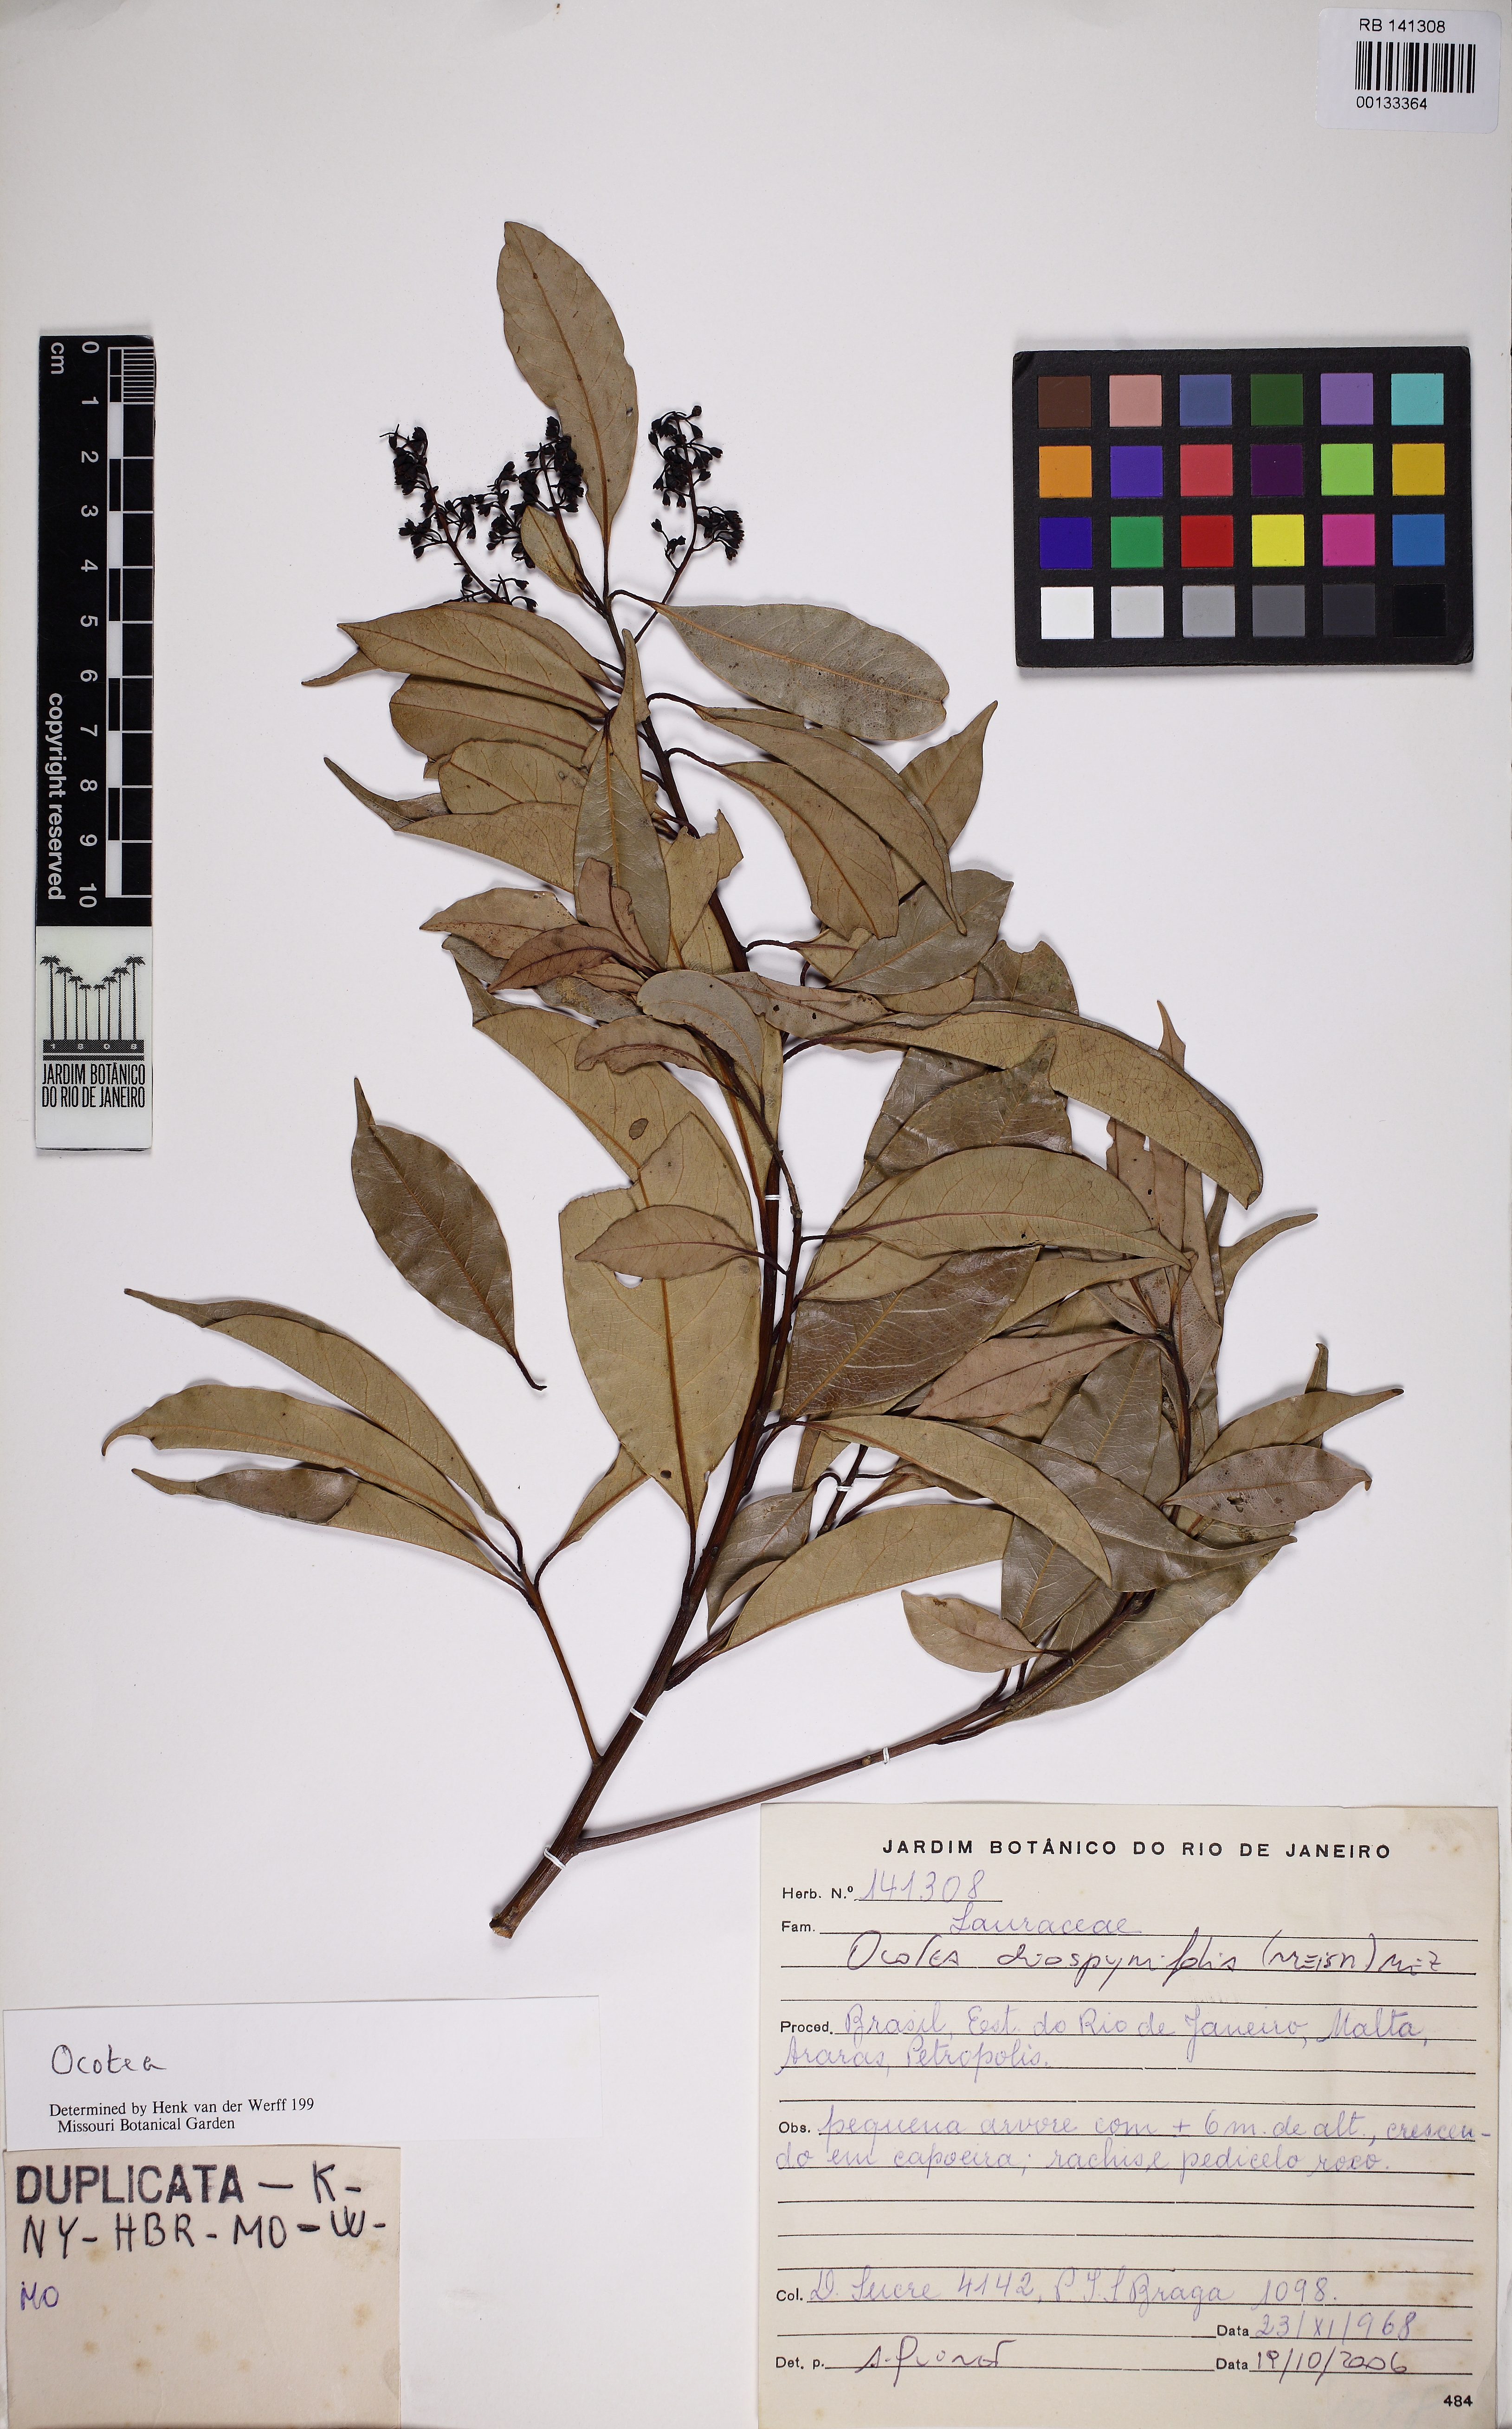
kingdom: Plantae
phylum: Tracheophyta
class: Magnoliopsida
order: Laurales
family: Lauraceae
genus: Ocotea
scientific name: Ocotea diospyrifolia
